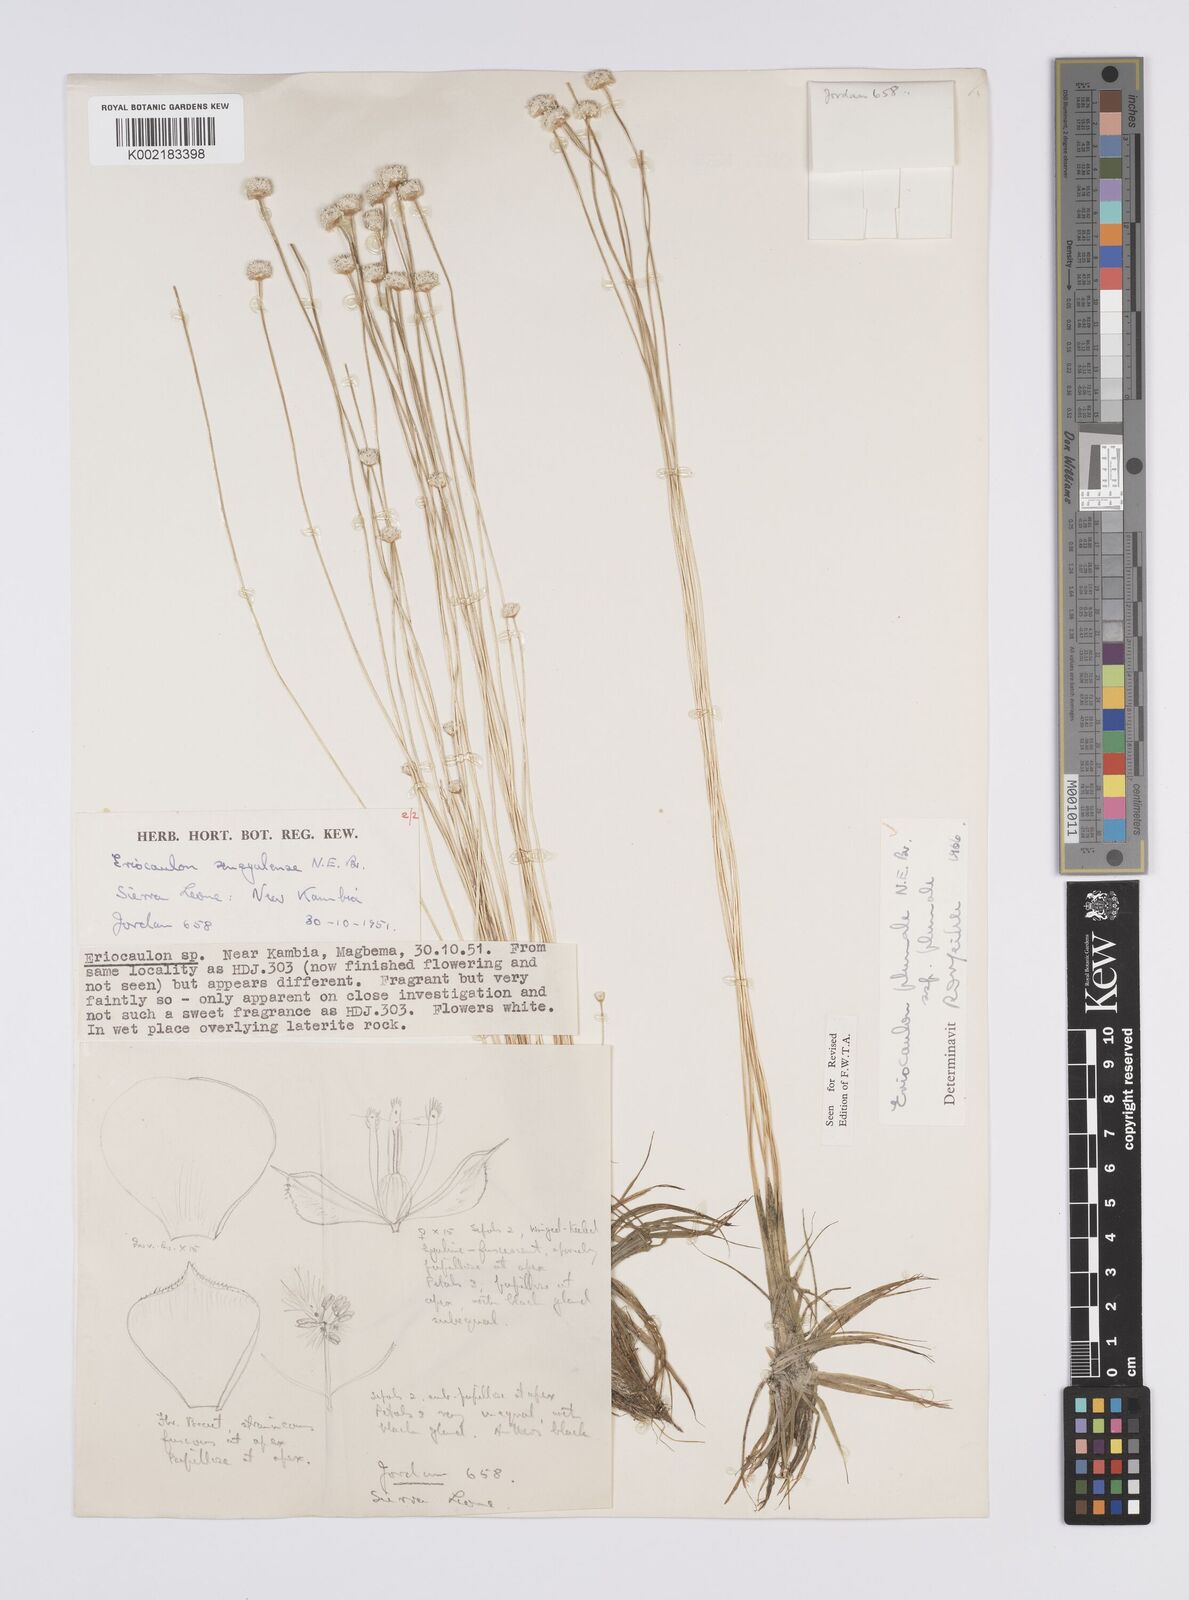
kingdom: Plantae
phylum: Tracheophyta
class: Liliopsida
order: Poales
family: Eriocaulaceae
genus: Eriocaulon
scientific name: Eriocaulon plumale
